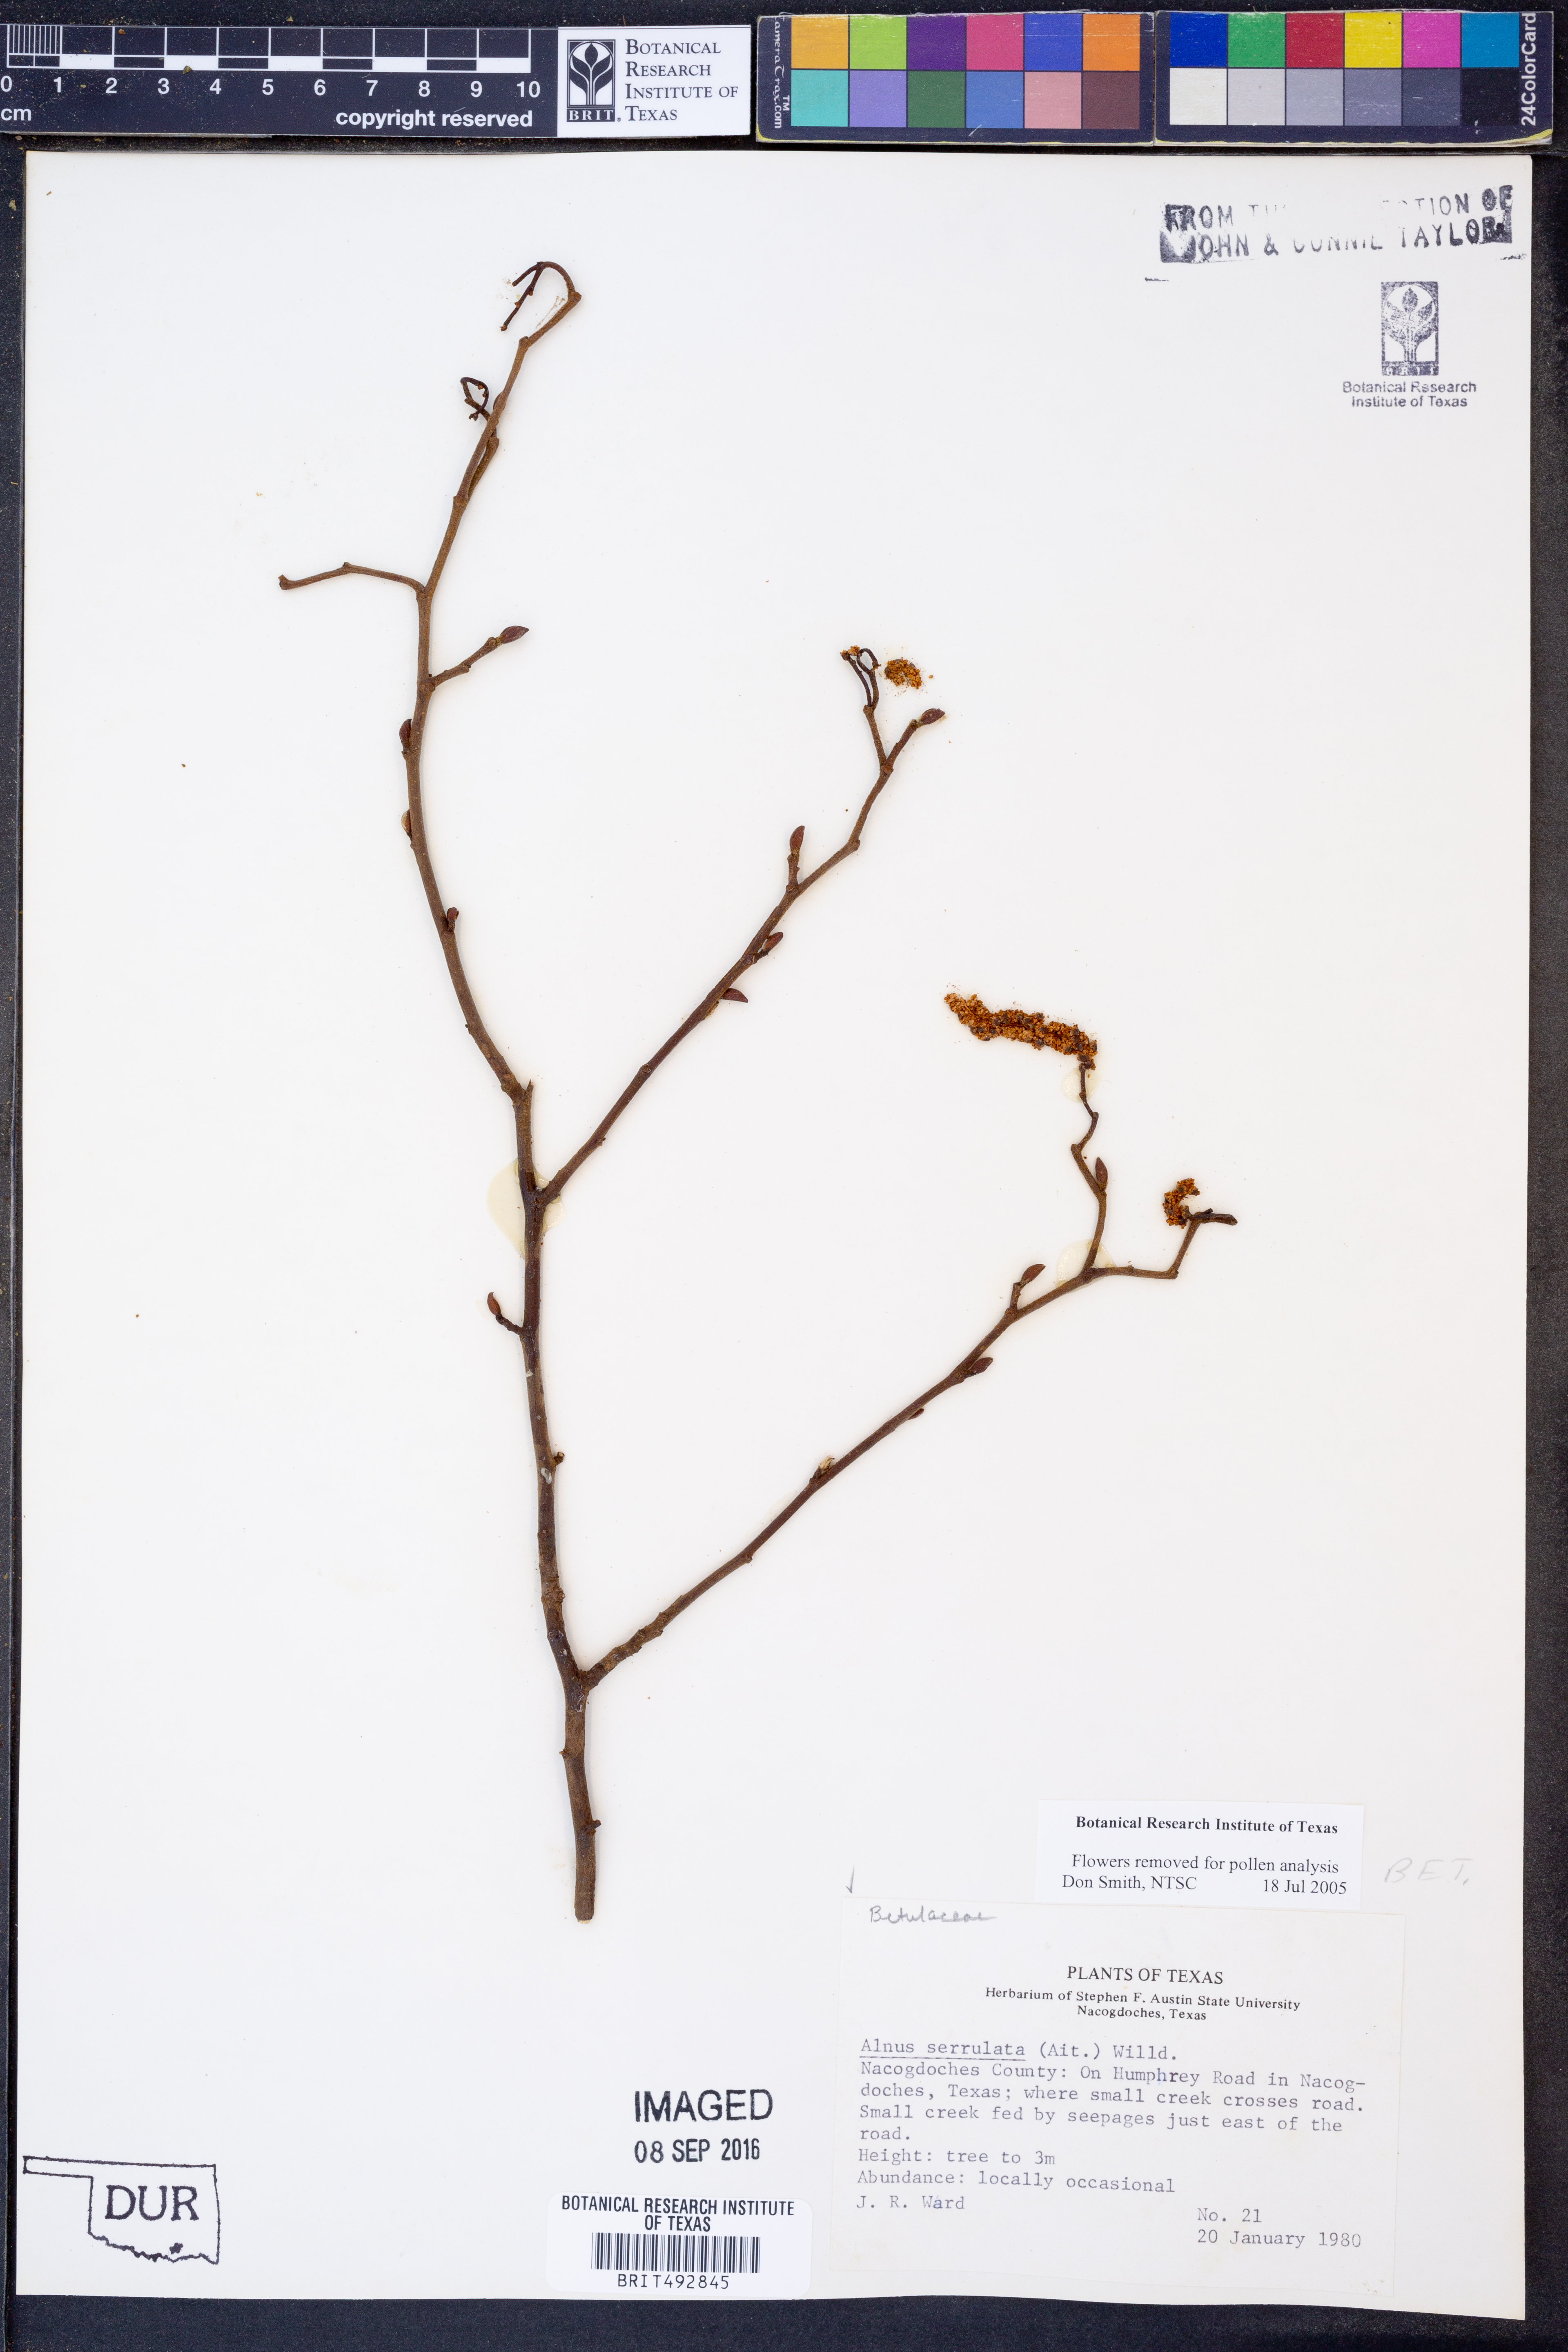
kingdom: Plantae
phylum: Tracheophyta
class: Magnoliopsida
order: Fagales
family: Betulaceae
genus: Alnus
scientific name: Alnus serrulata
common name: Hazel alder
